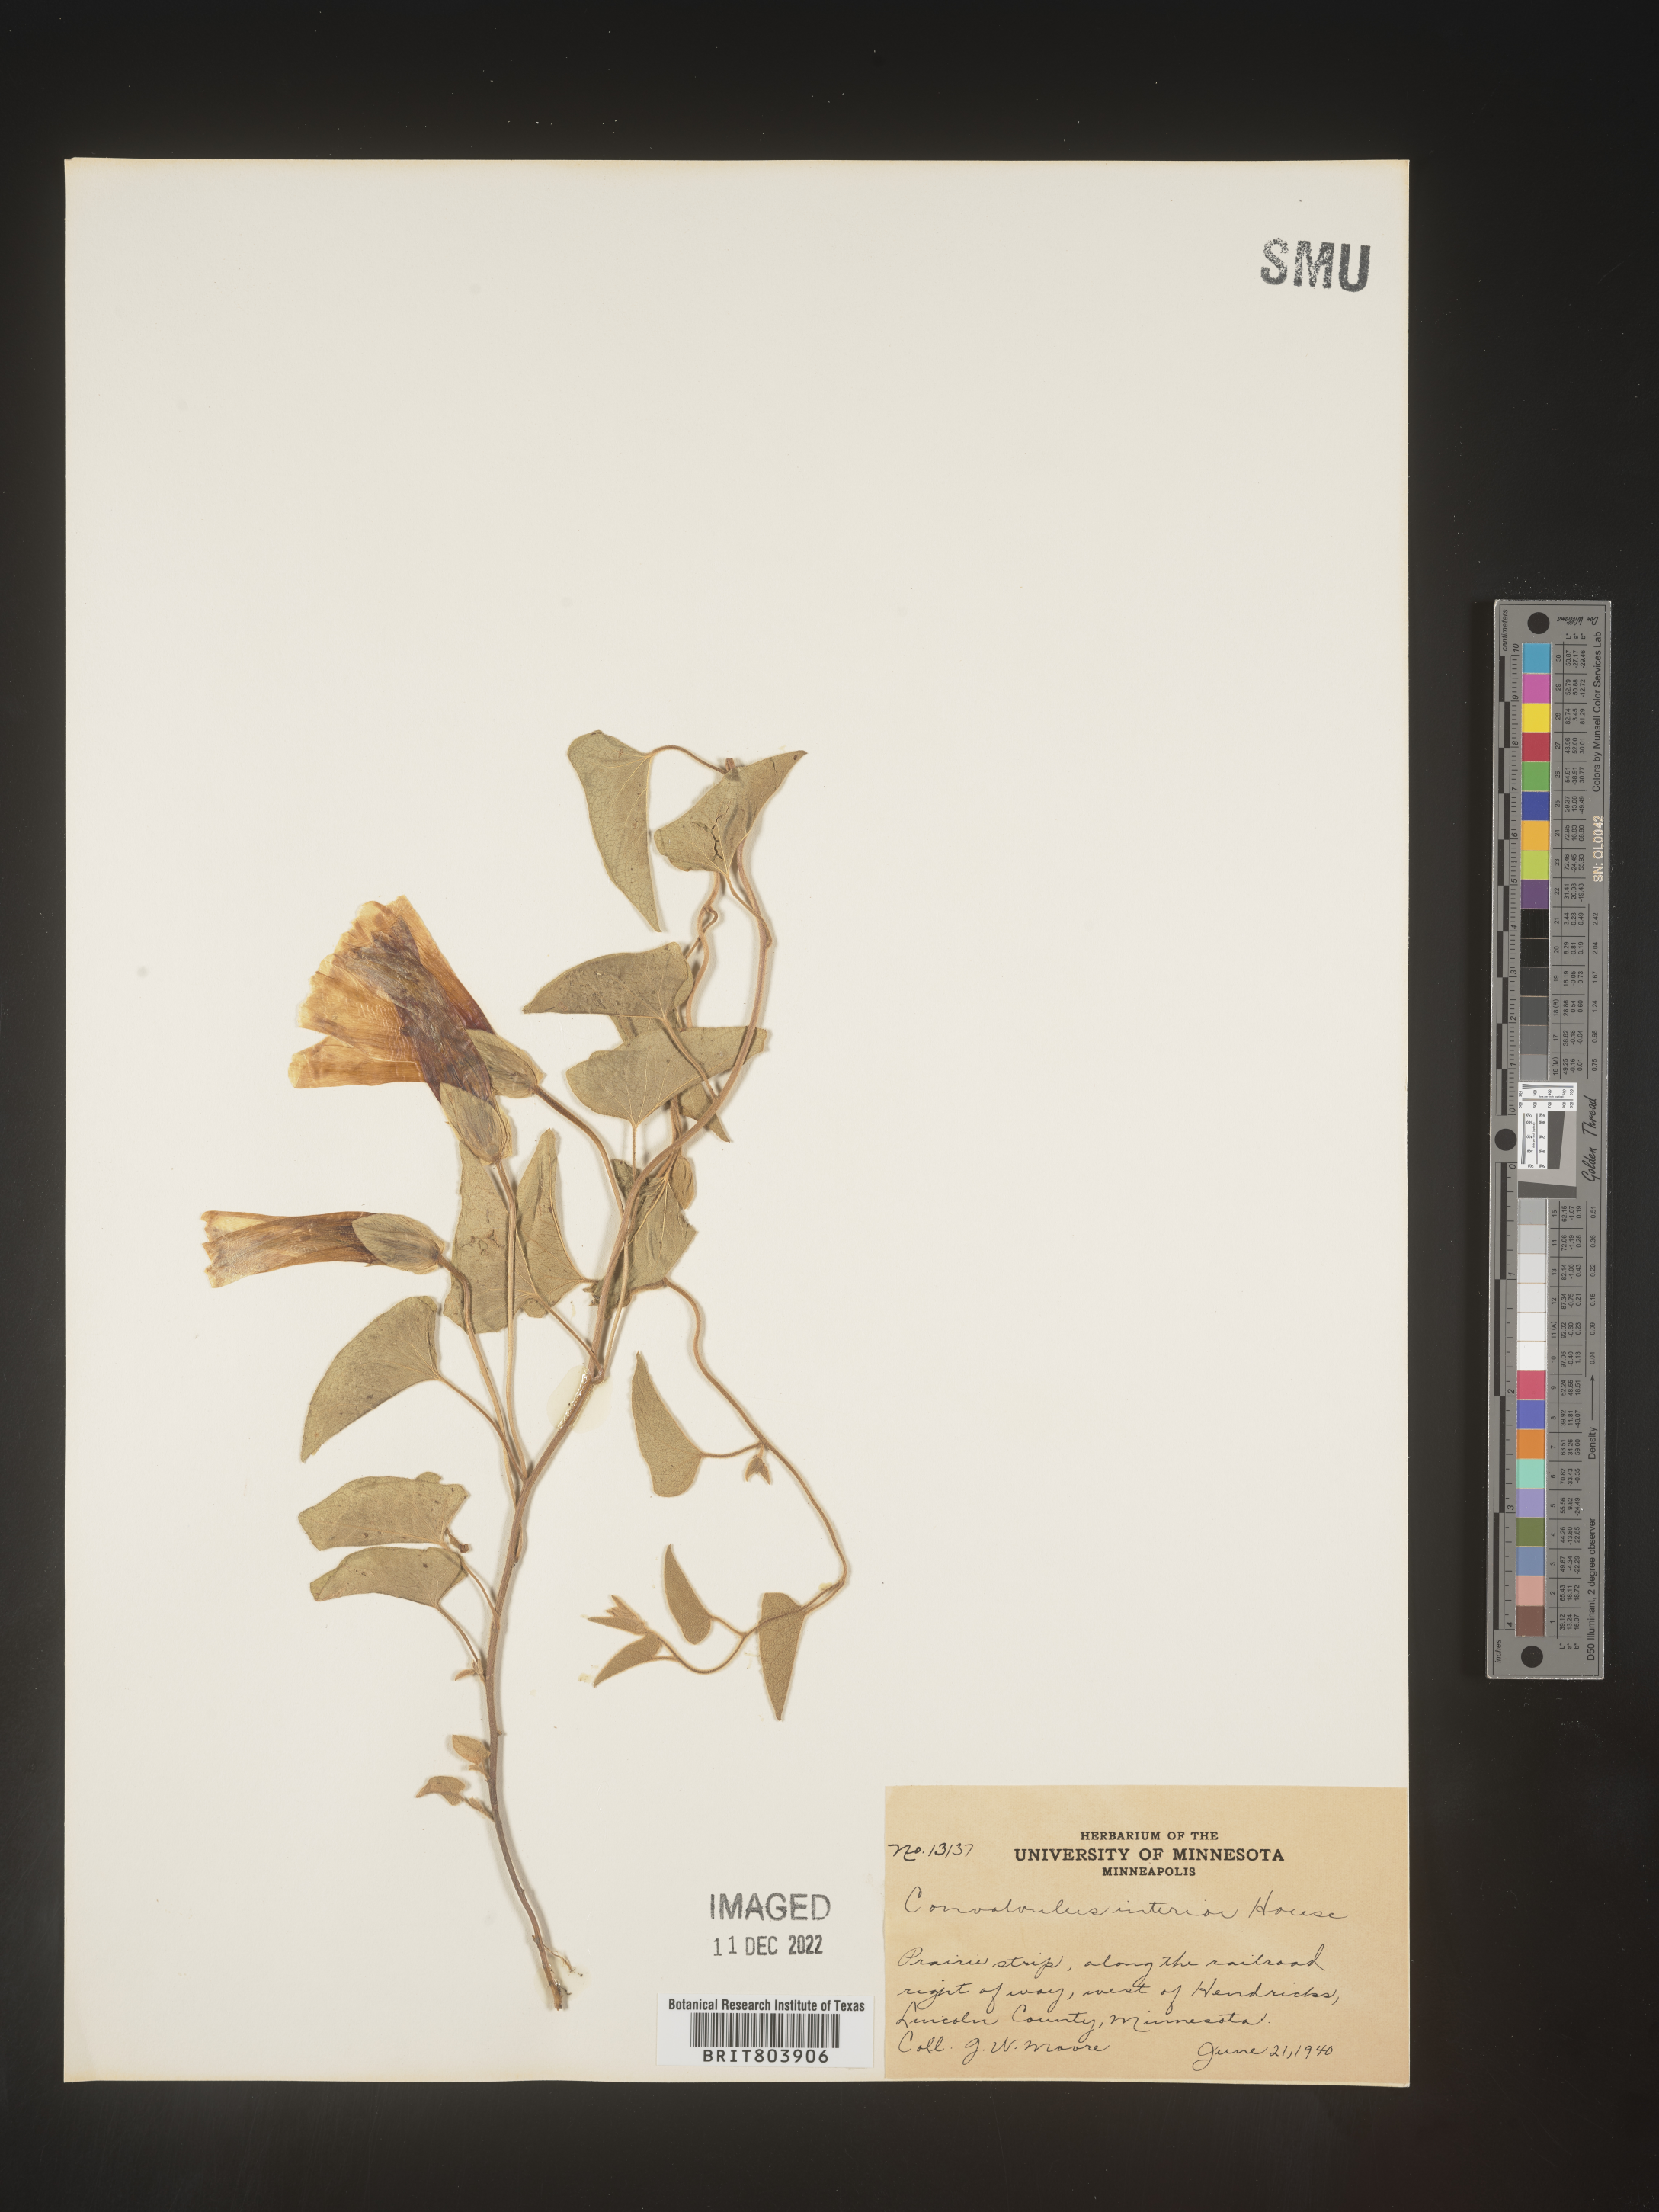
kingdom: Plantae
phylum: Tracheophyta
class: Magnoliopsida
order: Solanales
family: Convolvulaceae
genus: Calystegia
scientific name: Calystegia sepium
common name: Hedge bindweed
